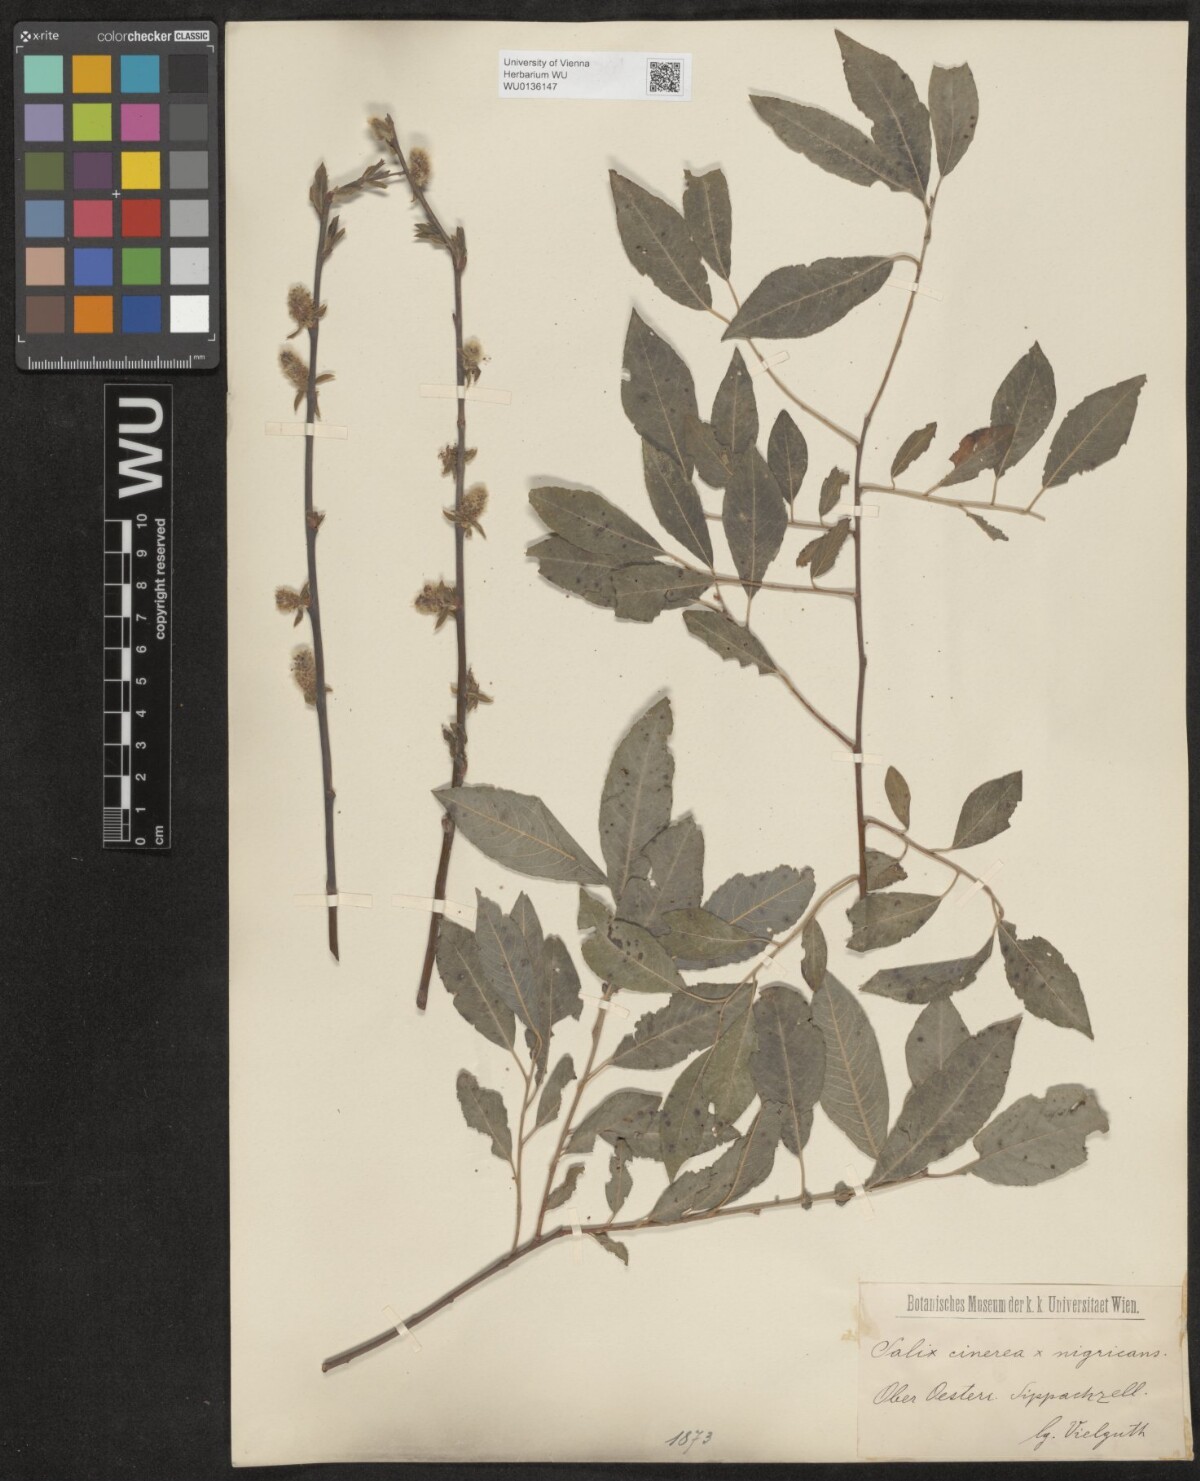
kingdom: Plantae
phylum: Tracheophyta
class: Magnoliopsida
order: Malpighiales
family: Salicaceae
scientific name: Salicaceae
